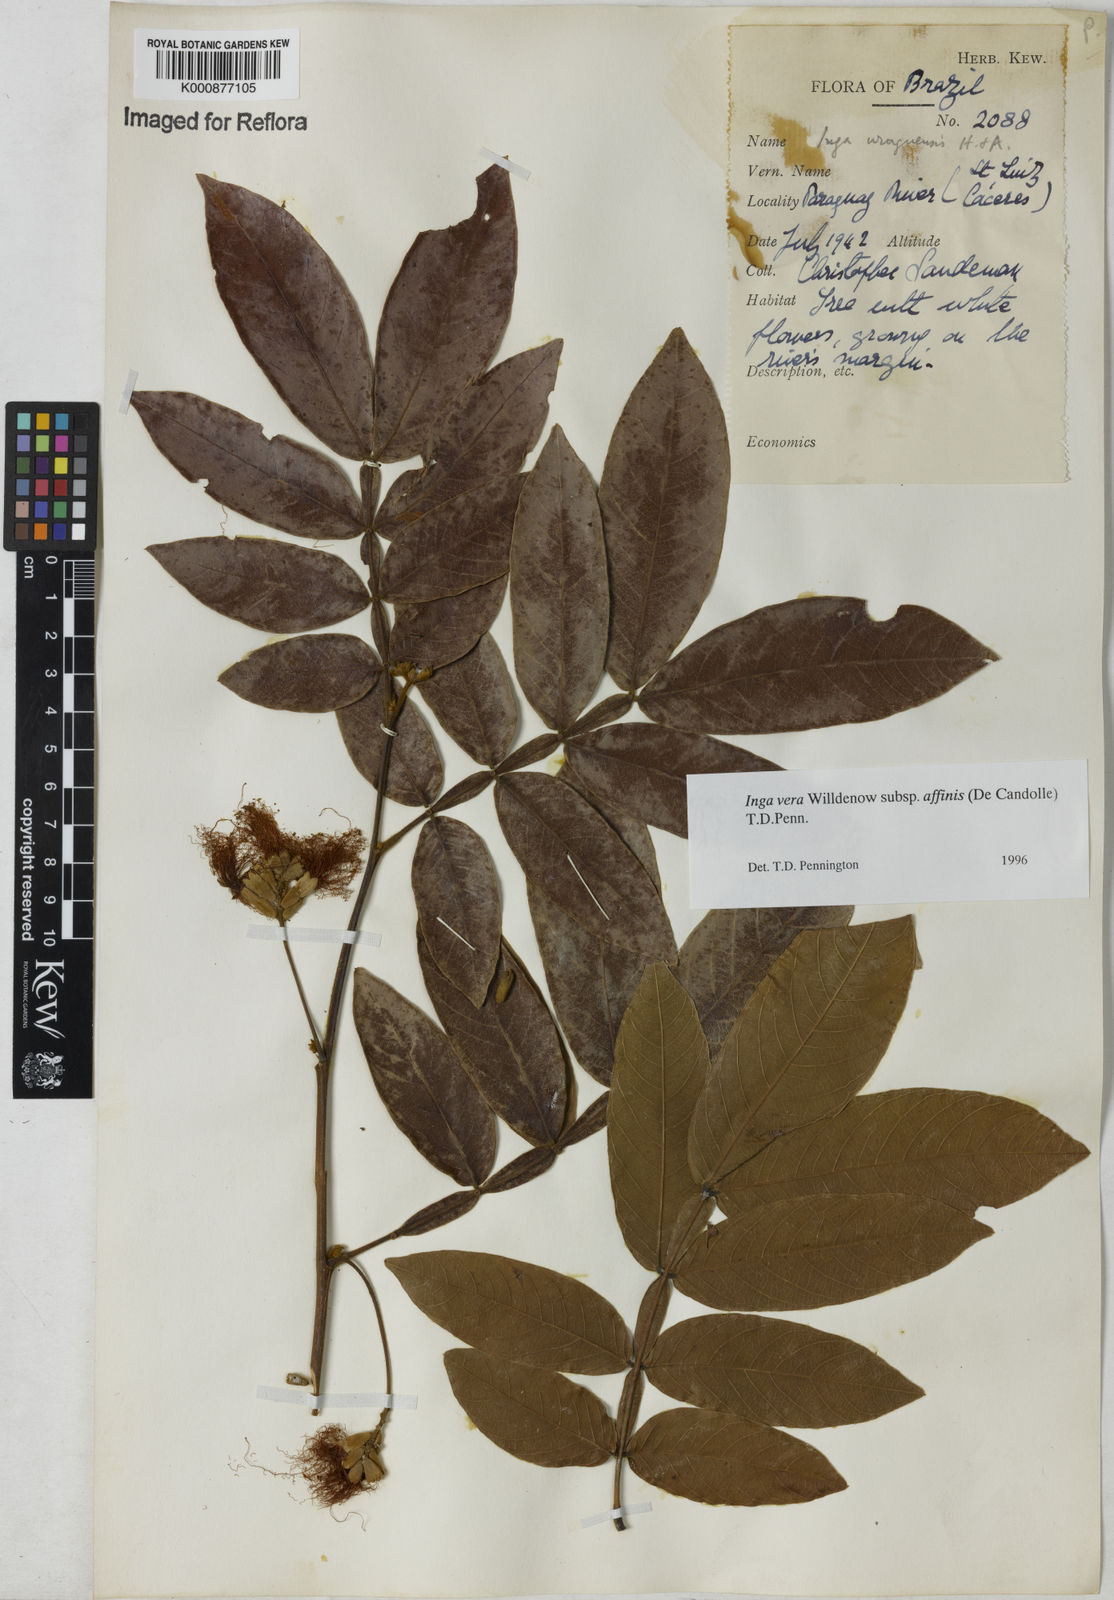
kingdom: Plantae
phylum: Tracheophyta
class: Magnoliopsida
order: Fabales
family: Fabaceae
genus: Inga
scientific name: Inga affinis
